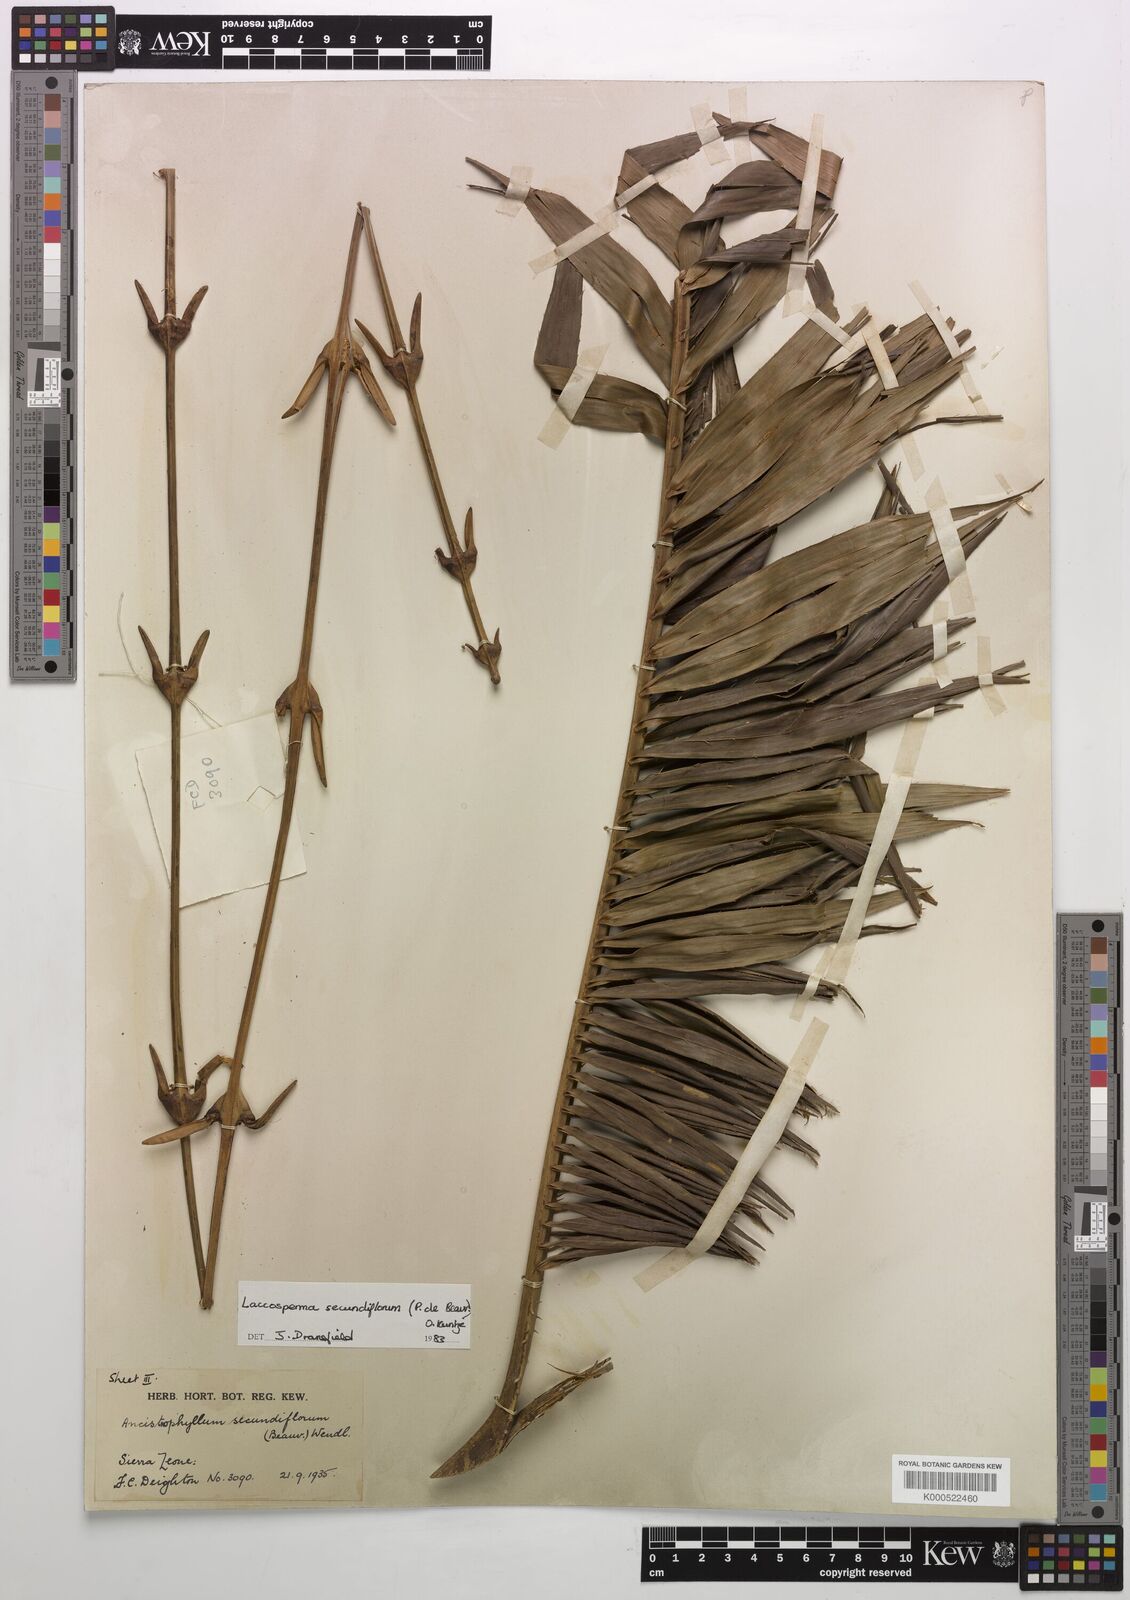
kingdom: Plantae
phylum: Tracheophyta
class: Liliopsida
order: Arecales
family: Arecaceae
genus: Laccosperma
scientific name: Laccosperma secundiflorum
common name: Rattan
